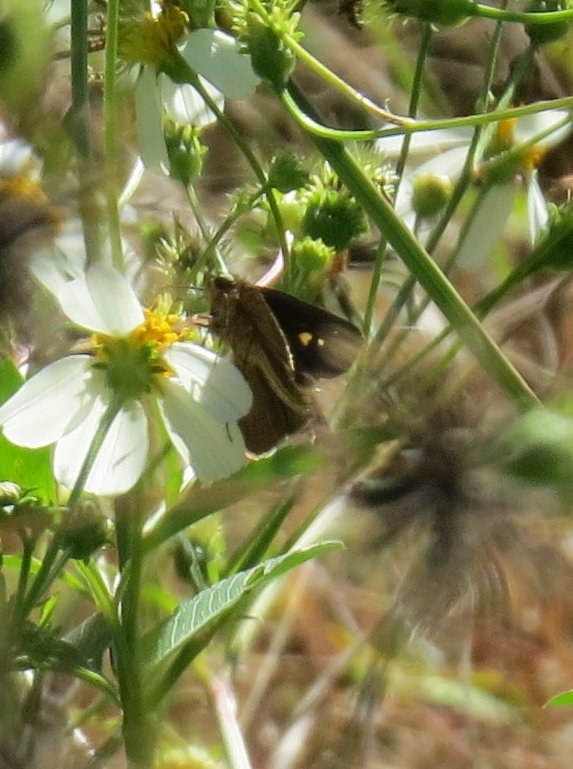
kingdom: Animalia
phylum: Arthropoda
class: Insecta
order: Lepidoptera
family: Hesperiidae
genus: Panoquina
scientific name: Panoquina ocola
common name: Ocola Skipper
